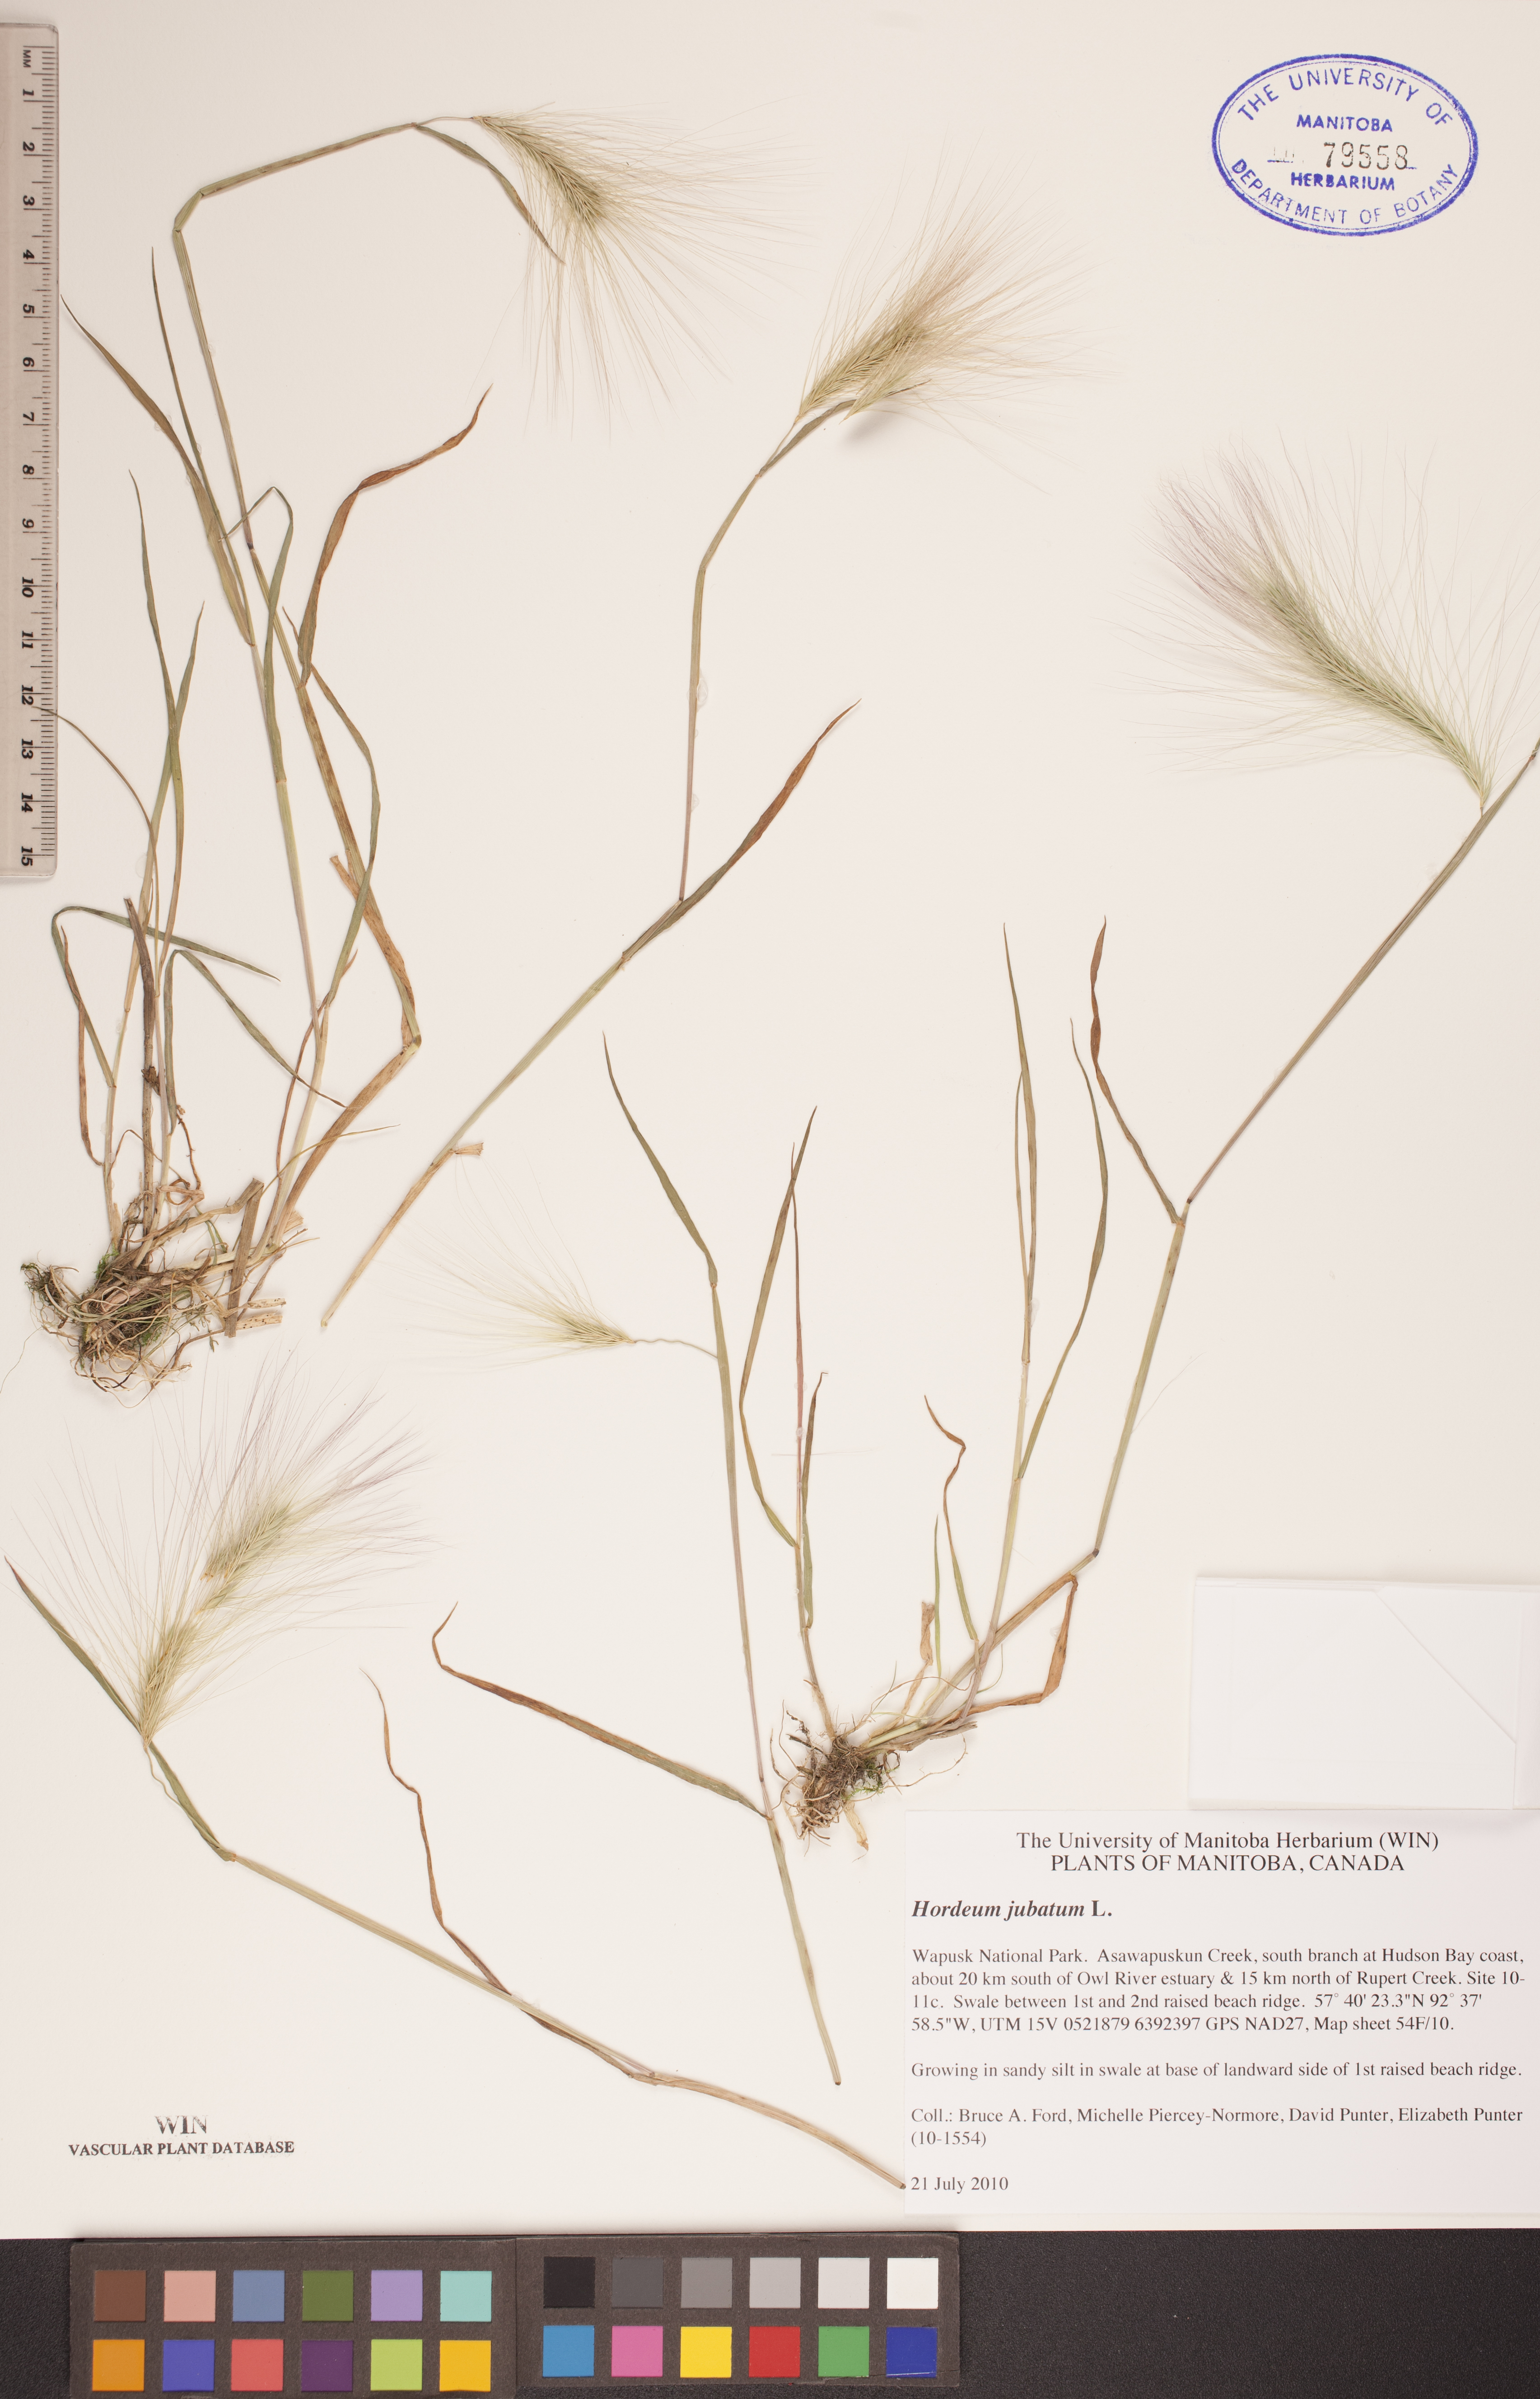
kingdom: Plantae
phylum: Tracheophyta
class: Liliopsida
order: Poales
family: Poaceae
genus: Hordeum
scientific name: Hordeum jubatum
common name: Foxtail barley
